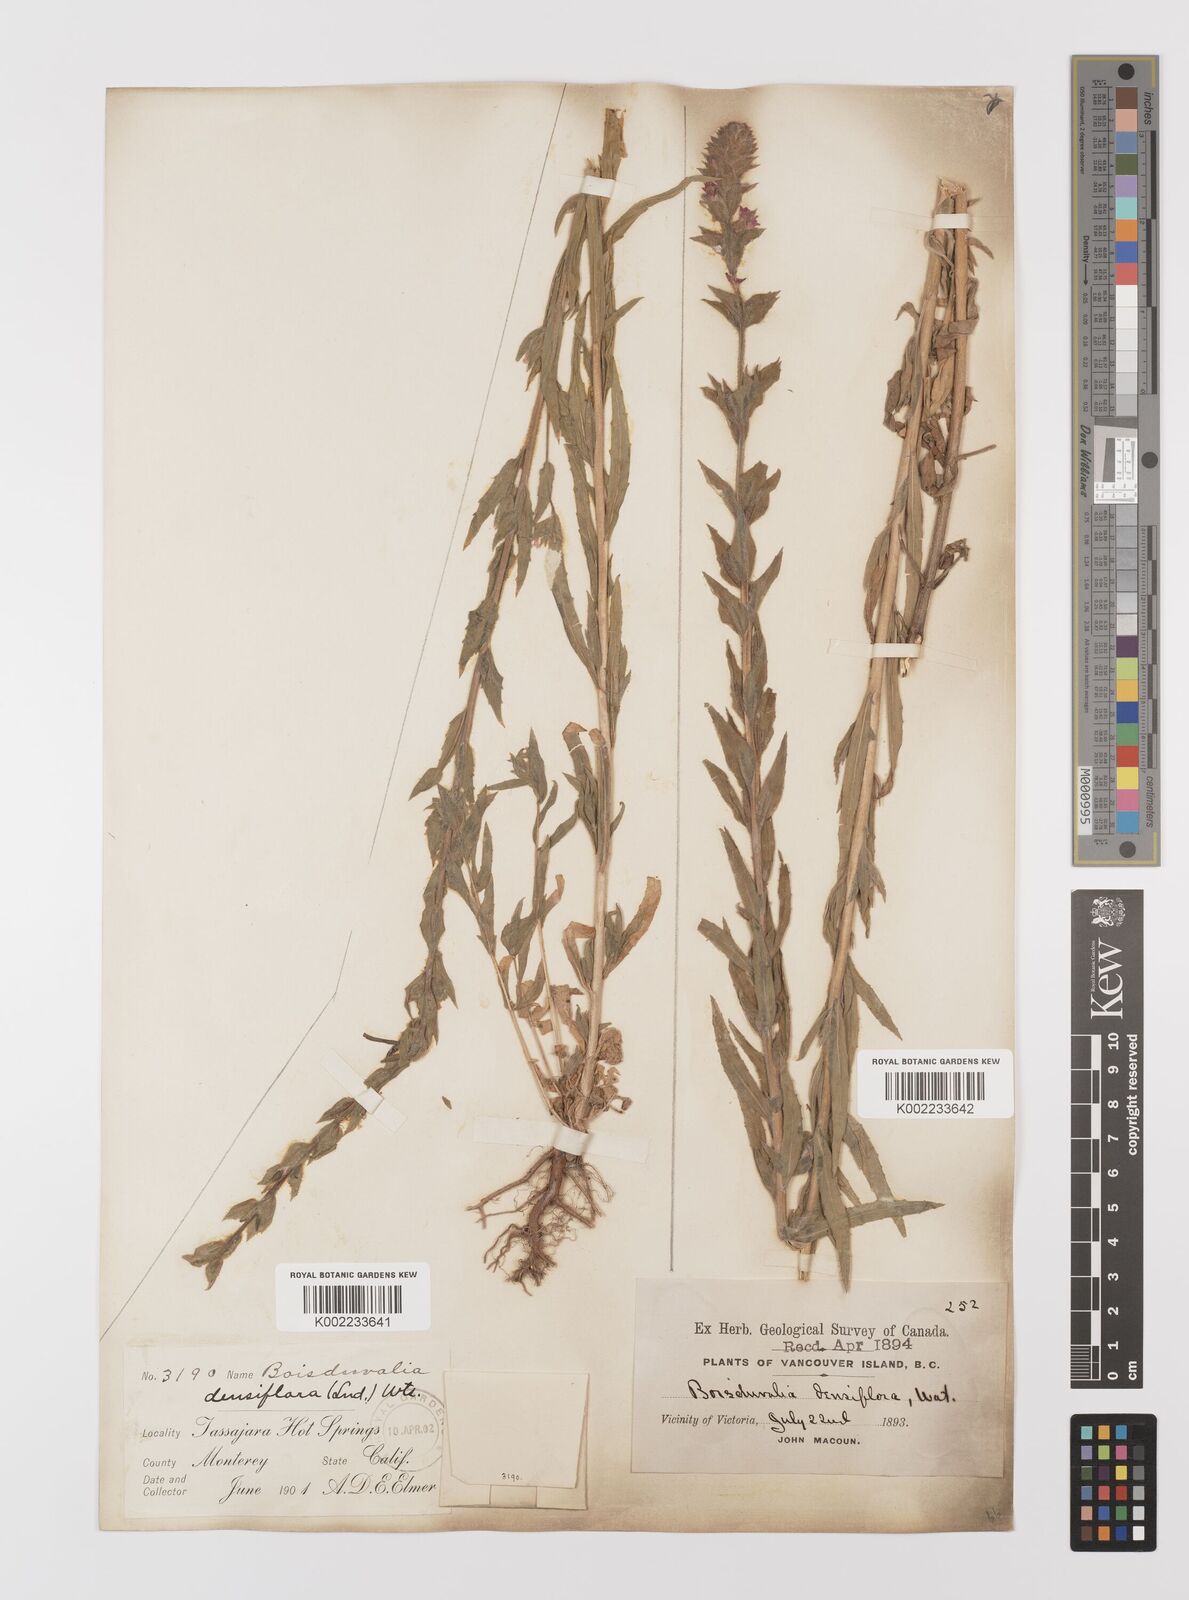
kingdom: Plantae
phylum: Tracheophyta
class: Magnoliopsida
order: Myrtales
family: Onagraceae
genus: Epilobium
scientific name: Epilobium densiflorum
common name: Dense spike-primrose
